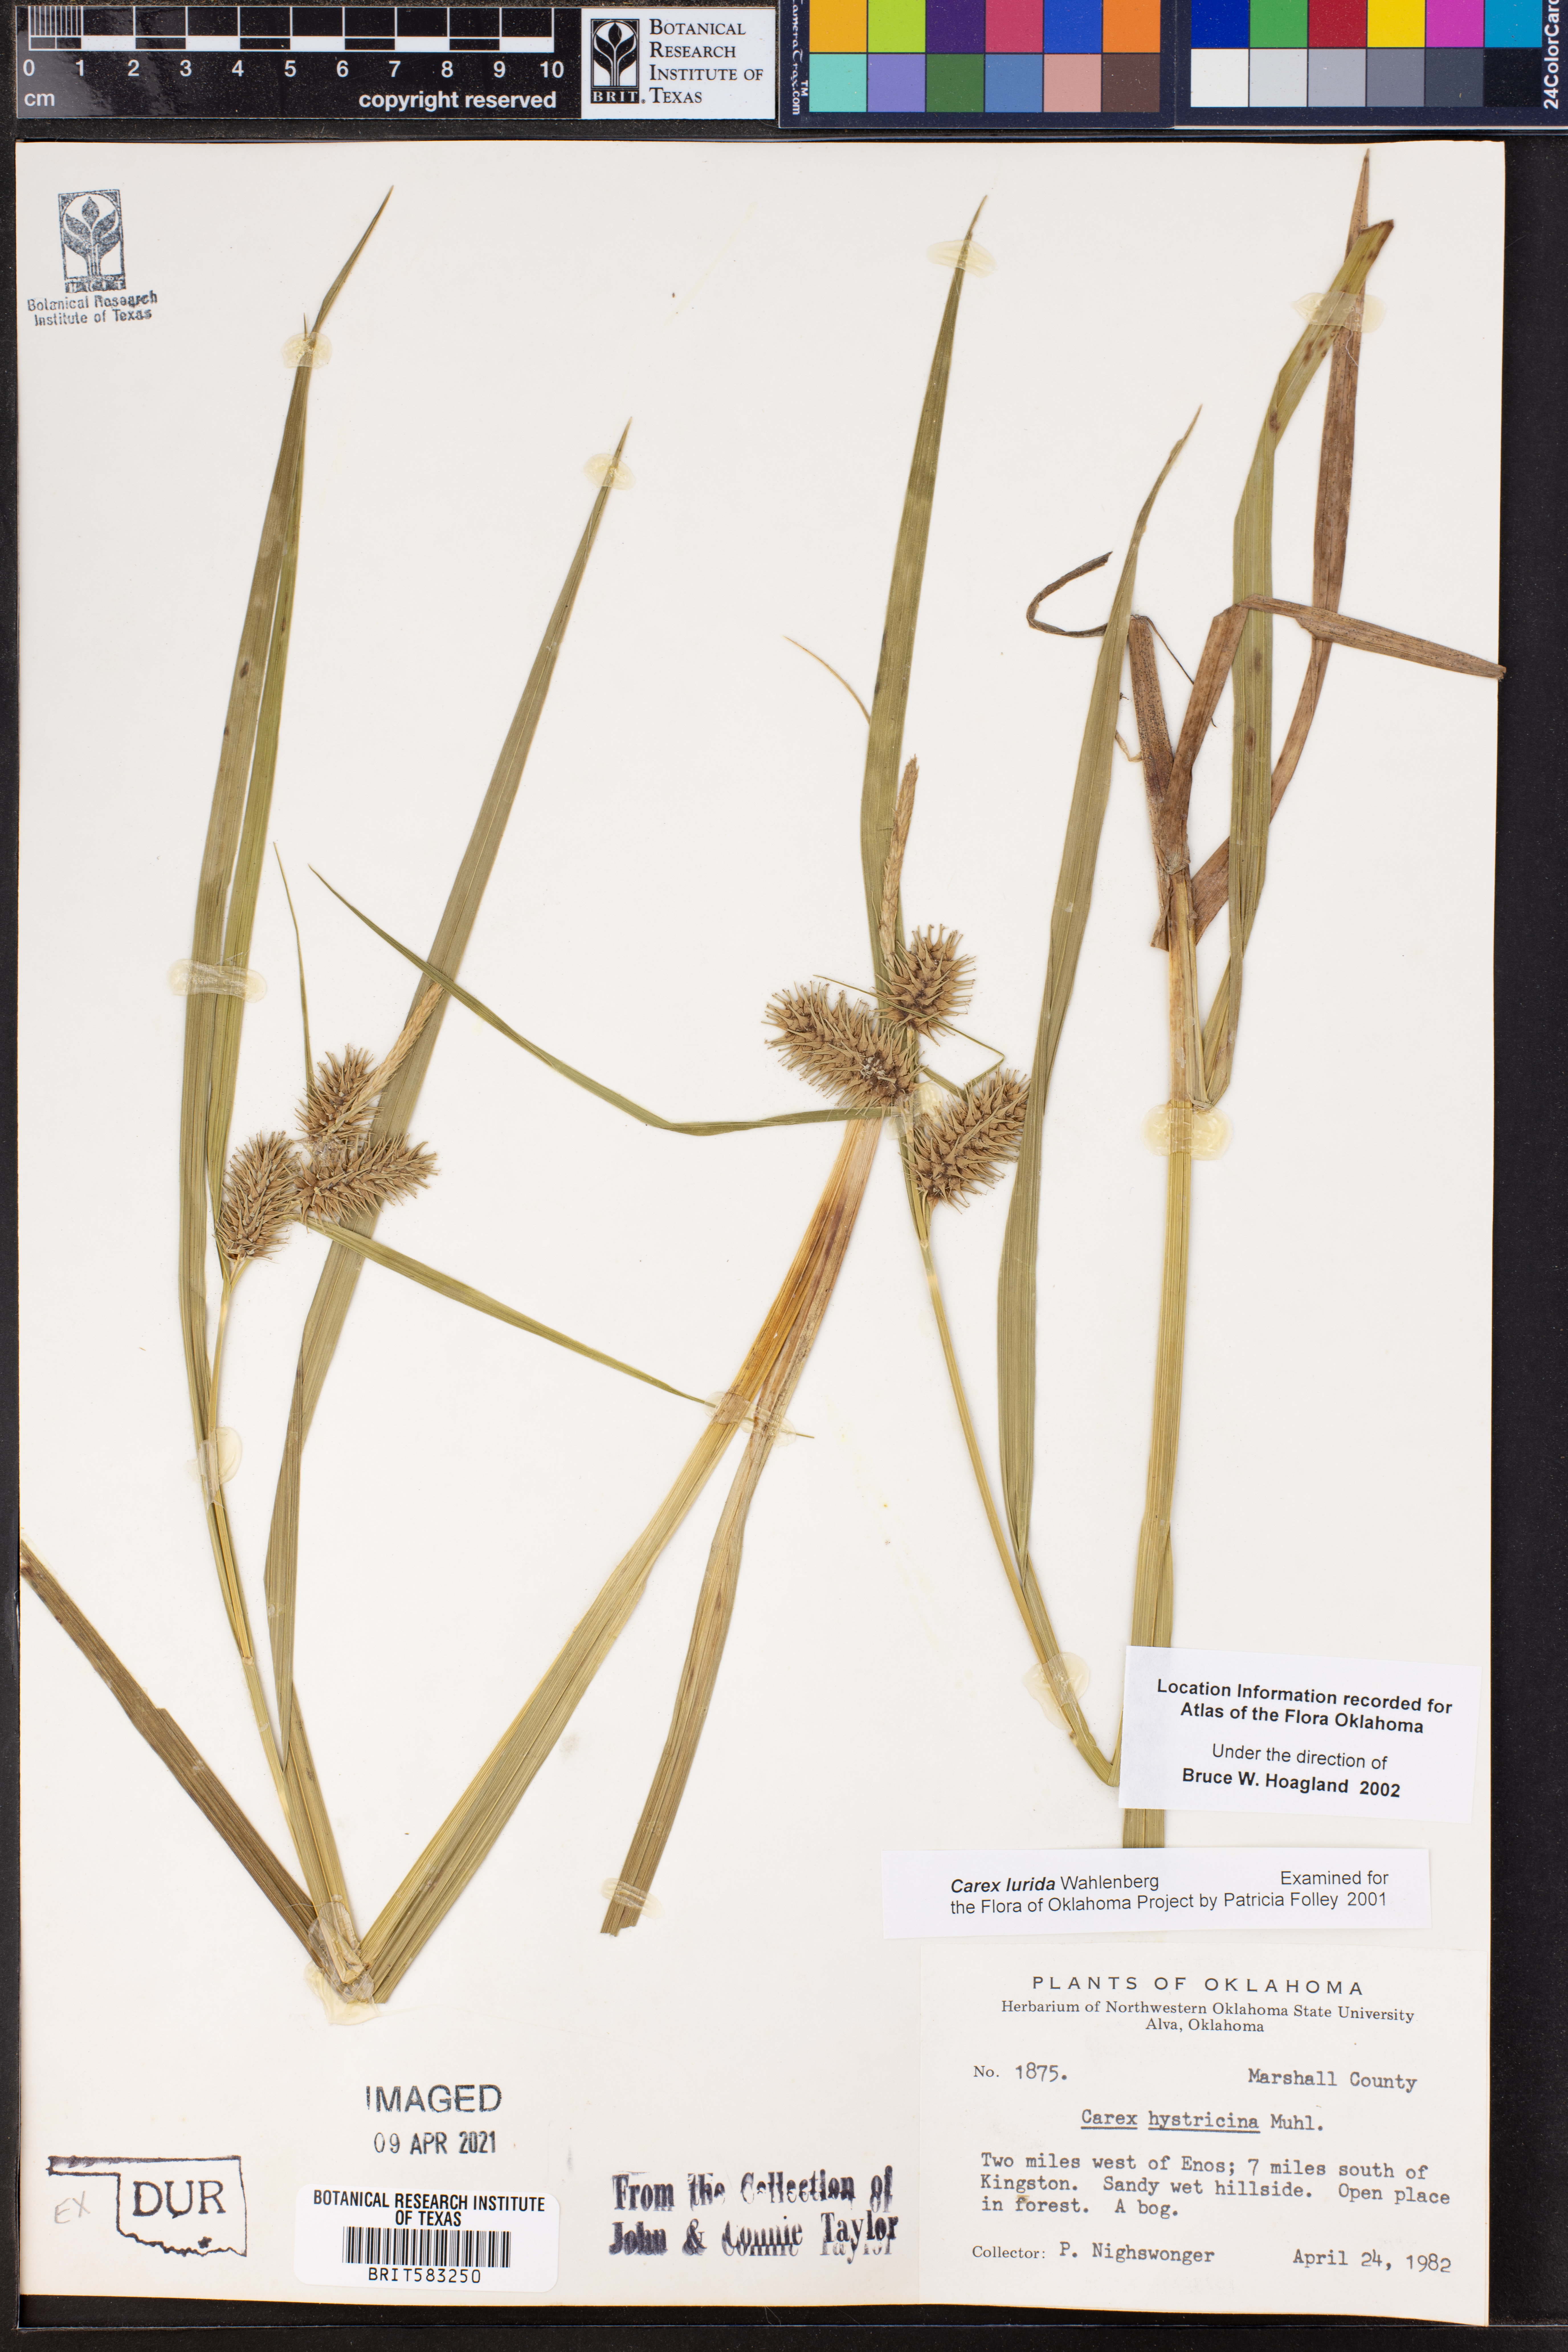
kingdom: Plantae
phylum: Tracheophyta
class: Liliopsida
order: Poales
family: Cyperaceae
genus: Carex
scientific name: Carex lurida
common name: Sallow sedge
